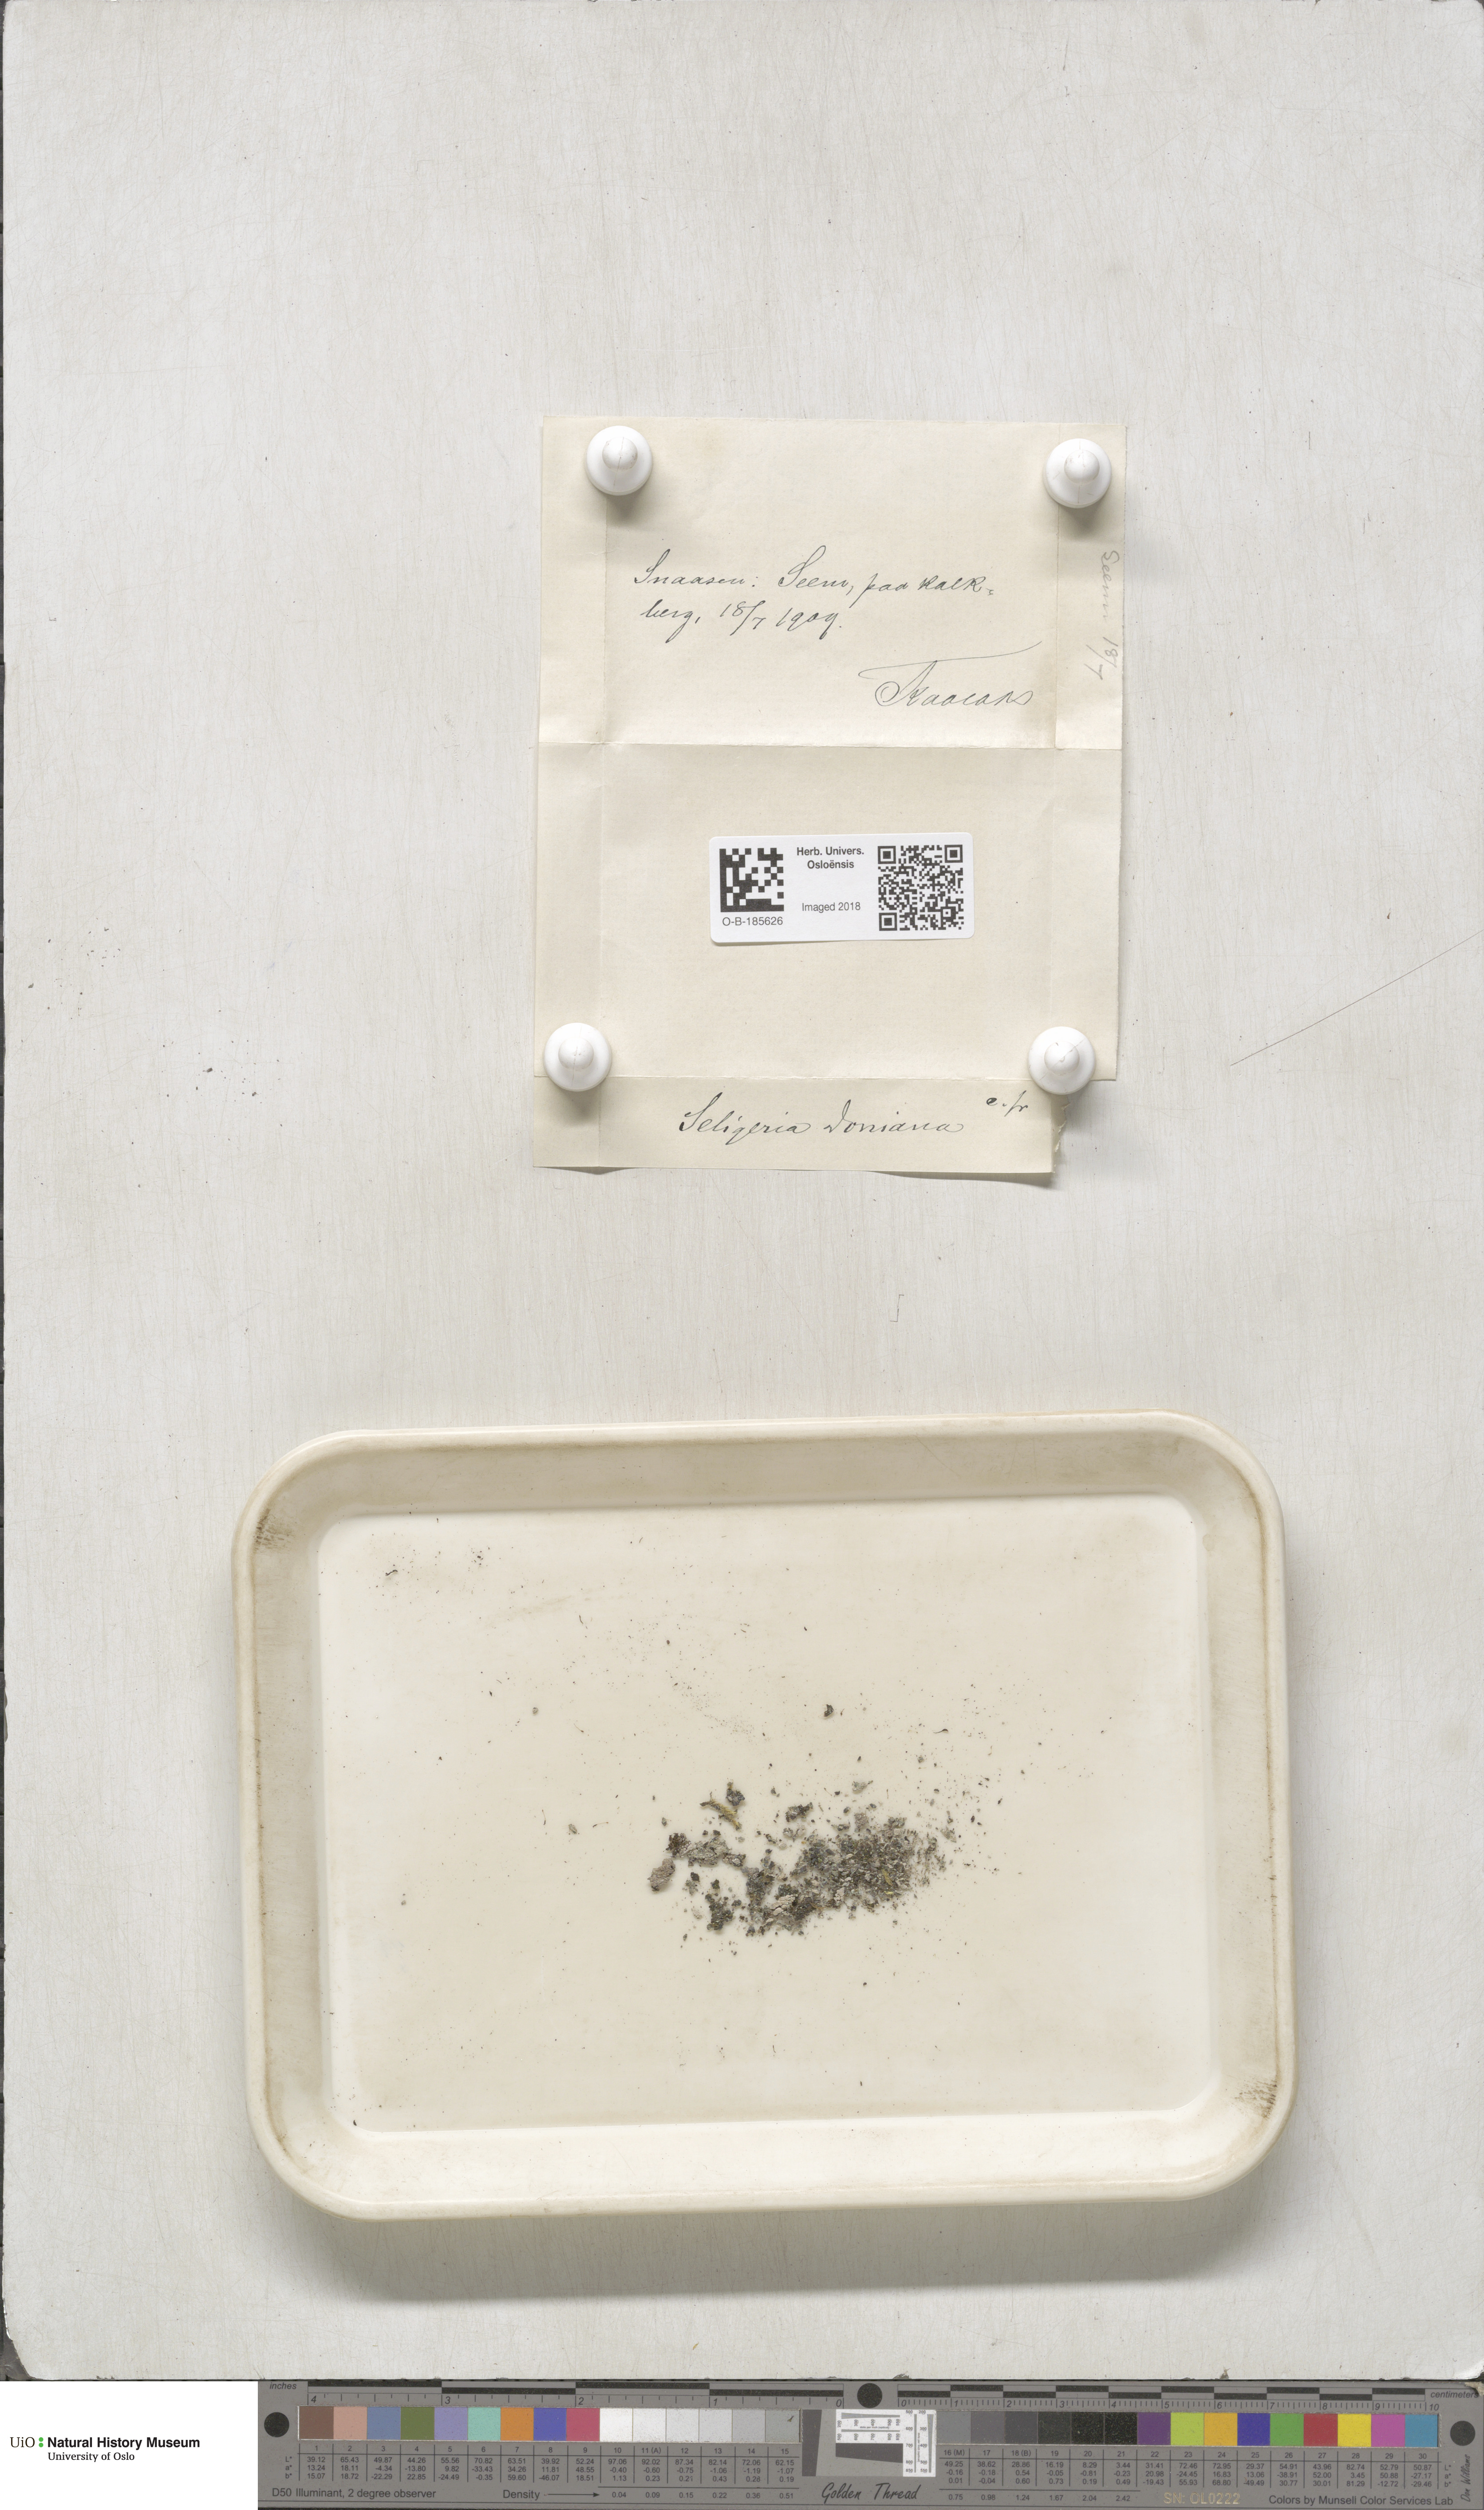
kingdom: Plantae
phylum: Bryophyta
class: Bryopsida
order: Grimmiales
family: Seligeriaceae
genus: Seligeria
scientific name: Seligeria donniana
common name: Donn's bristle moss
